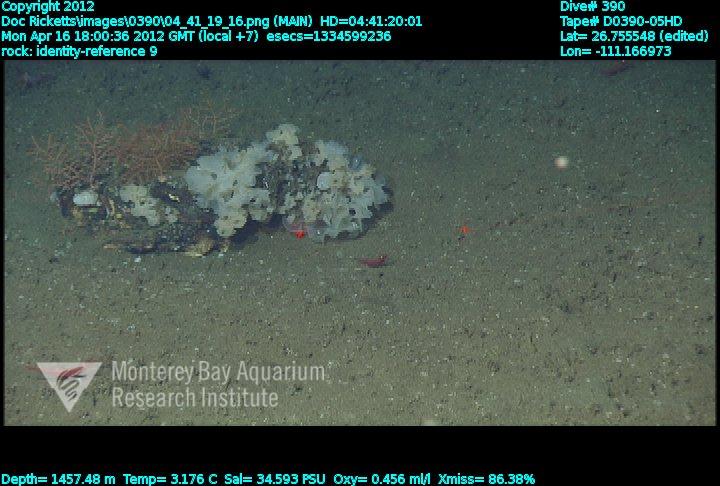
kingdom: Animalia
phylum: Porifera
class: Hexactinellida
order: Sceptrulophora
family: Farreidae
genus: Farrea
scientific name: Farrea
